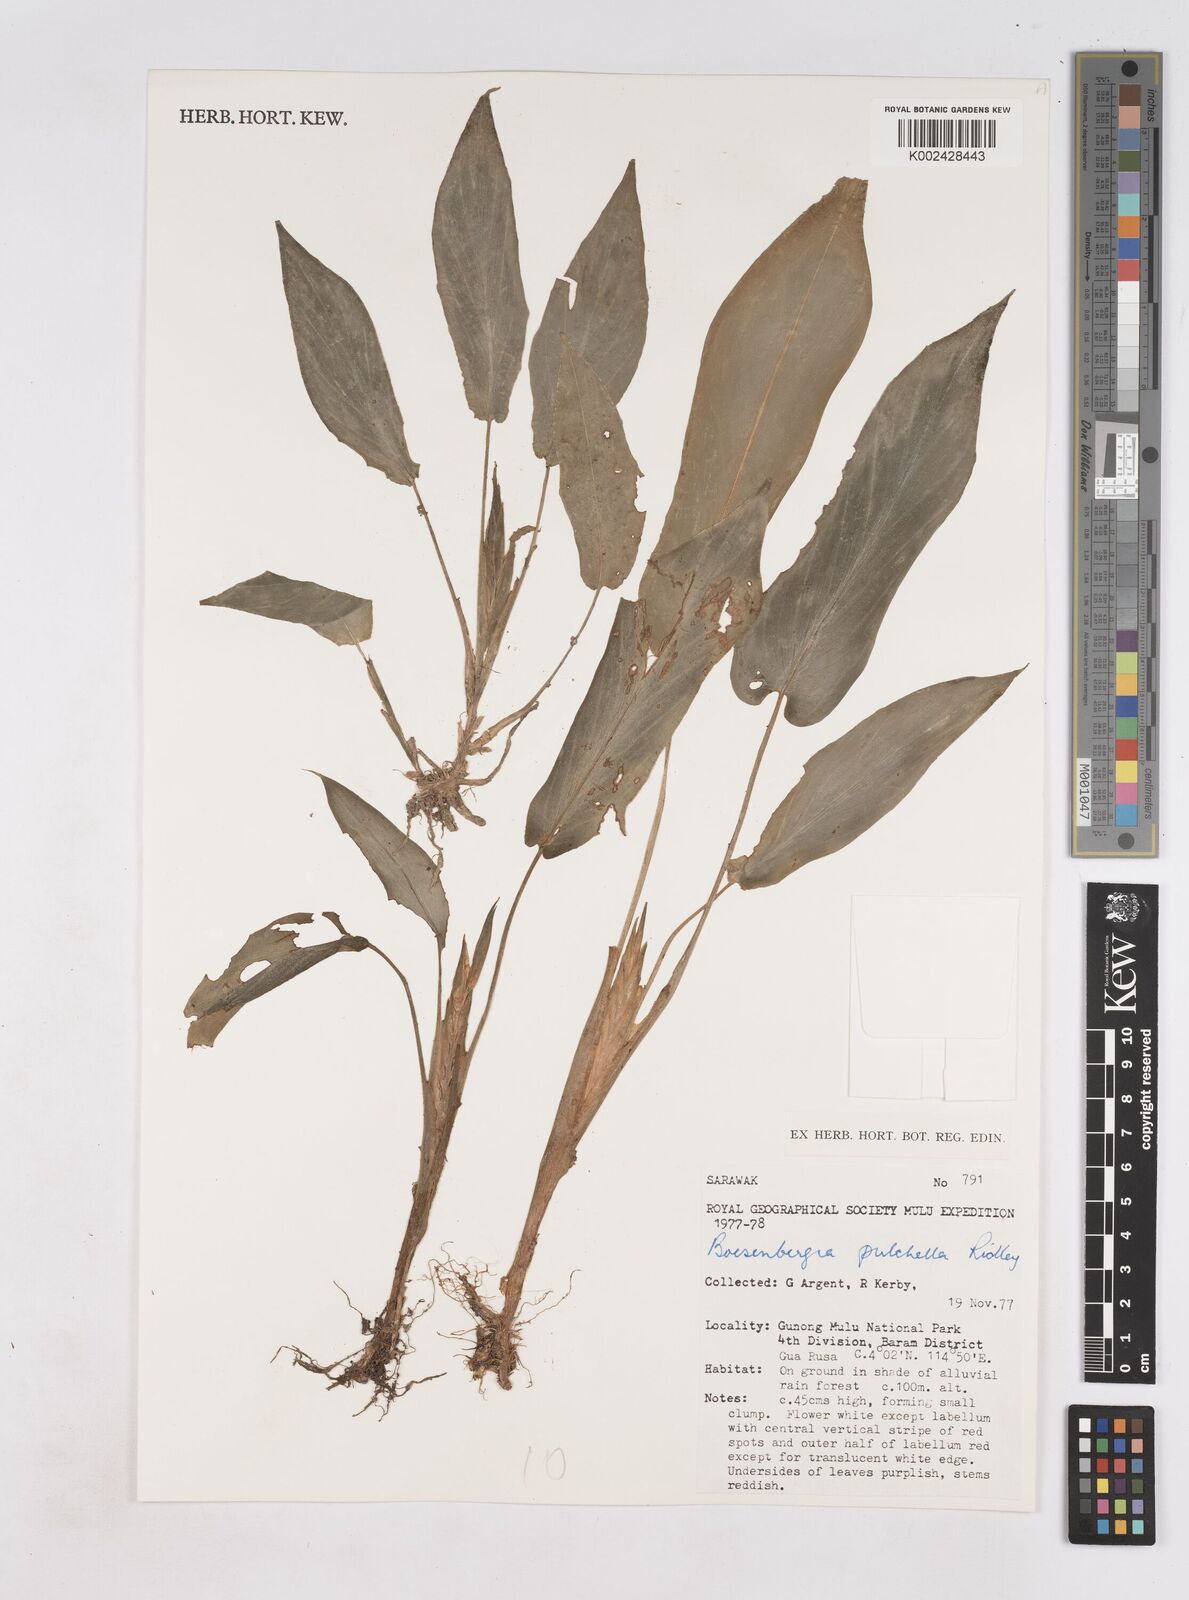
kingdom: Plantae
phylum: Tracheophyta
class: Liliopsida
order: Zingiberales
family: Zingiberaceae
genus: Boesenbergia
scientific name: Boesenbergia pulchella
